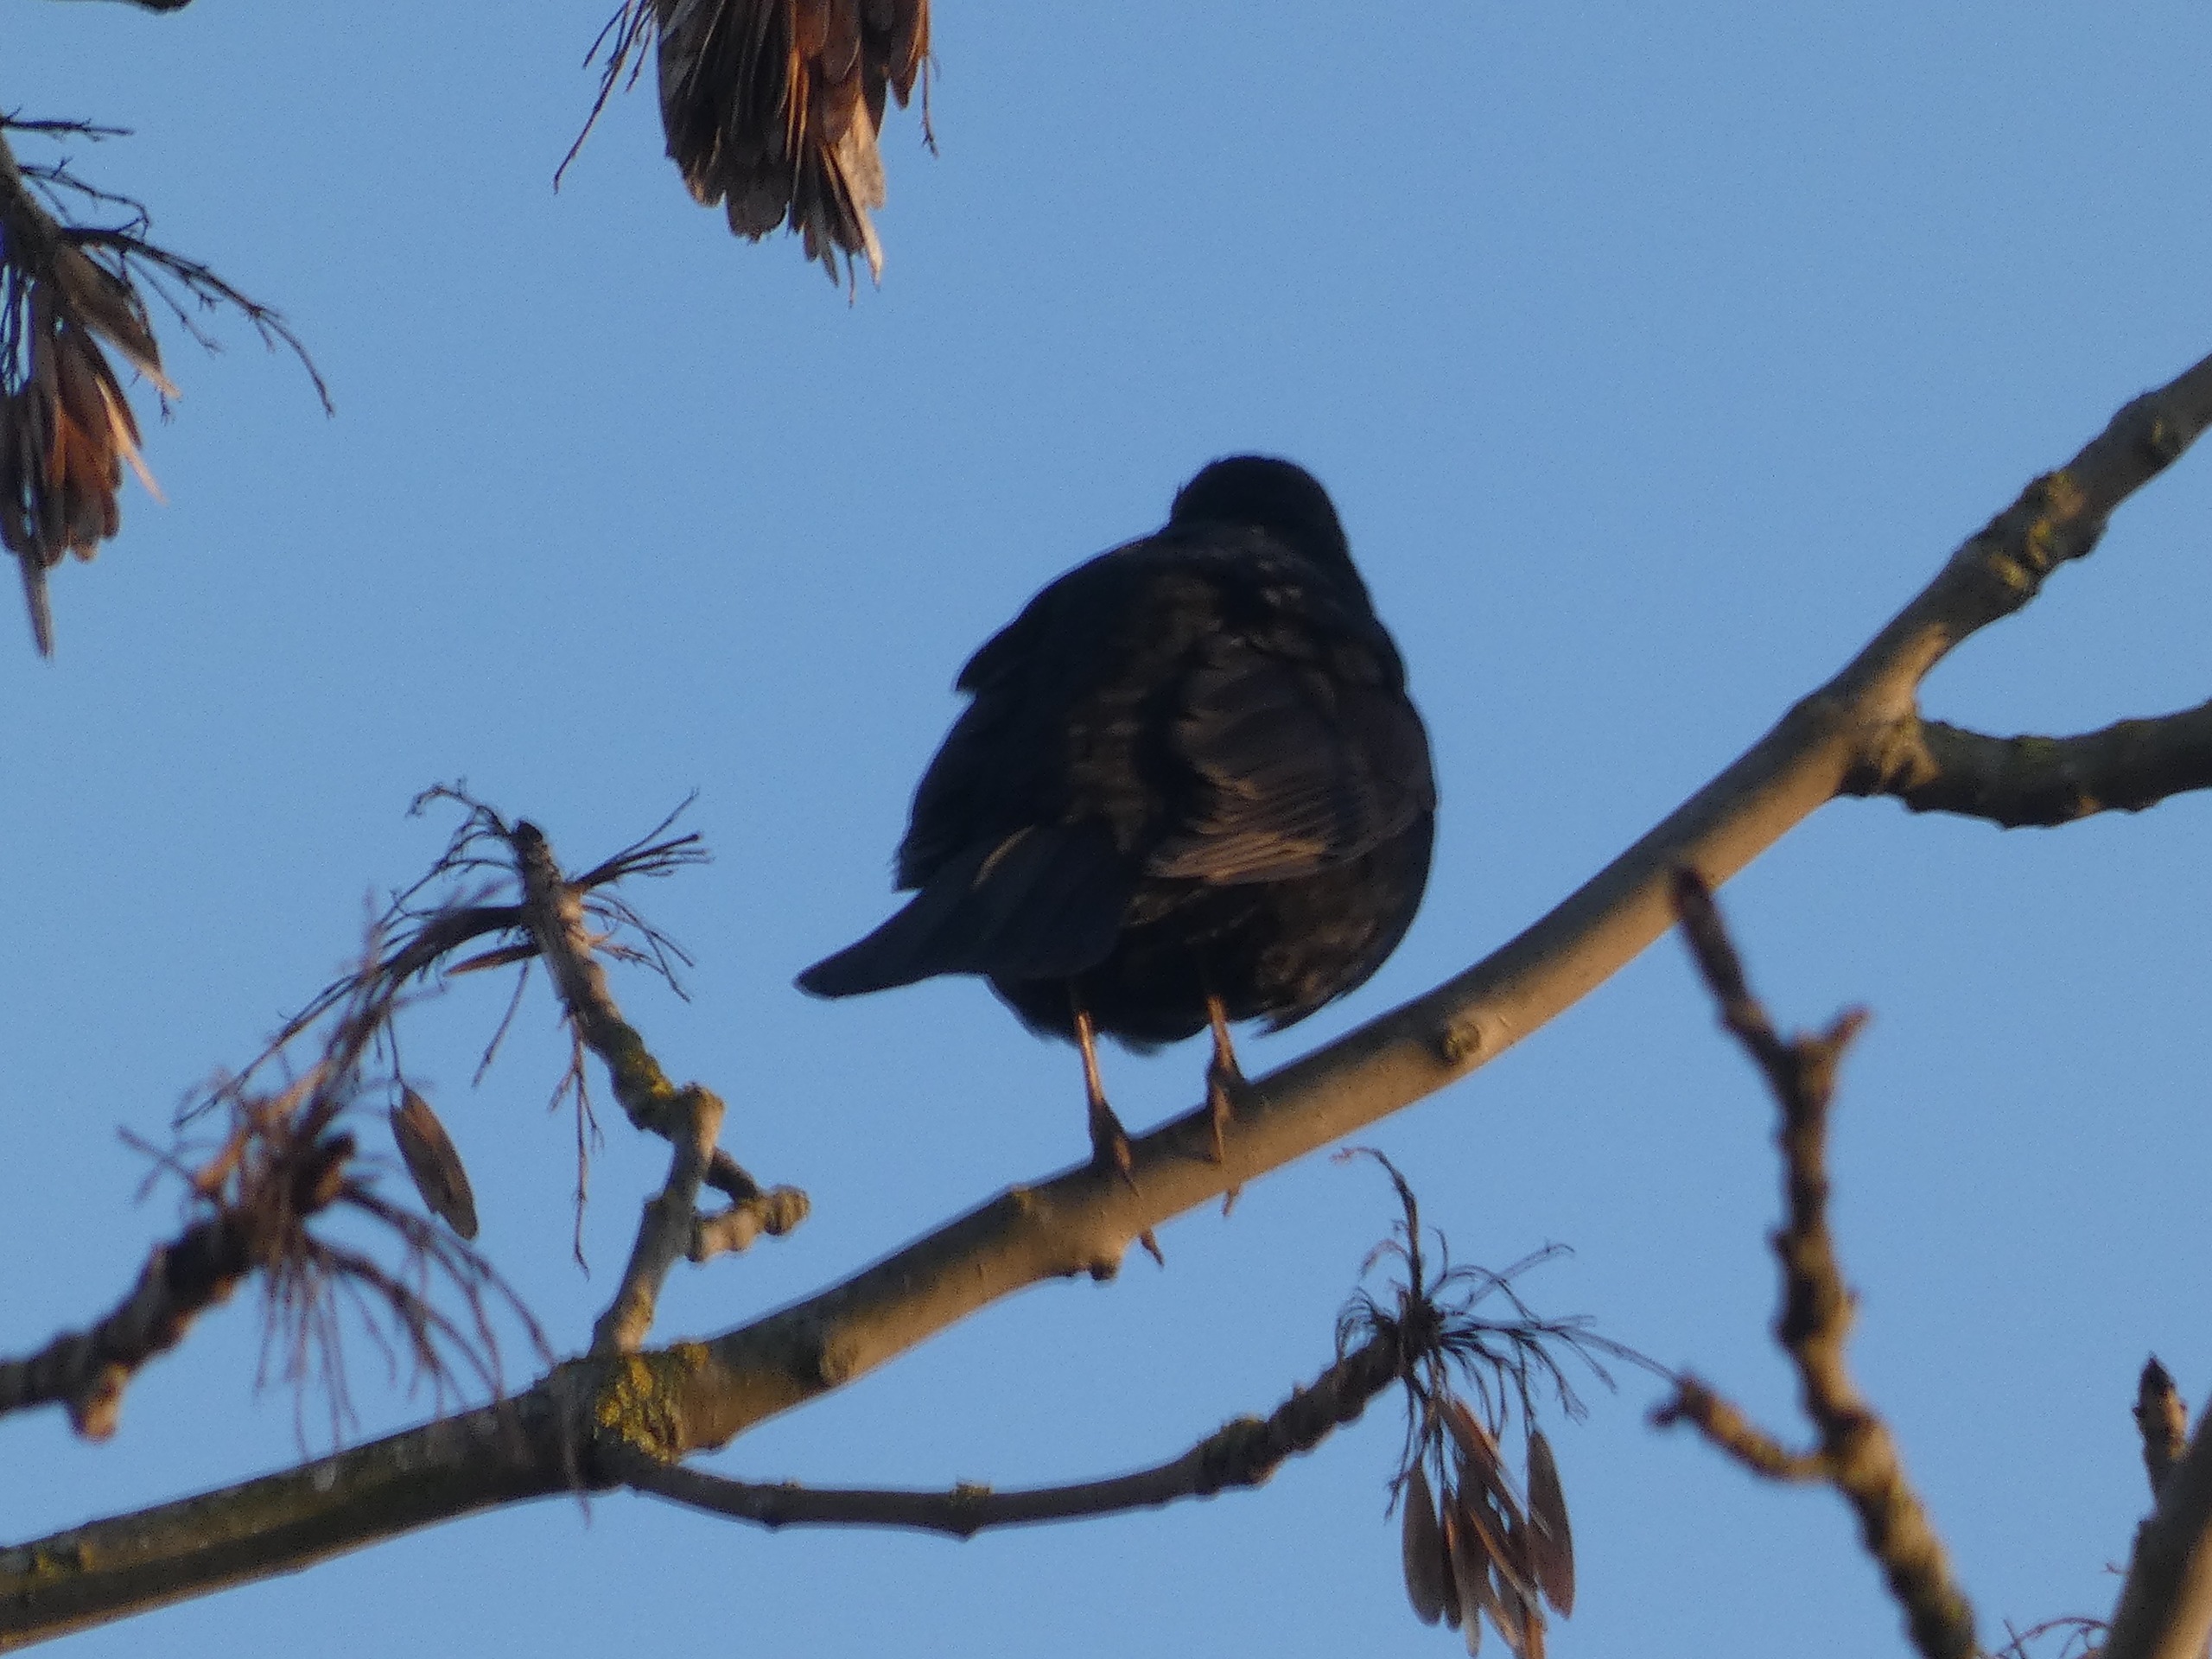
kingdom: Animalia
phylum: Chordata
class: Aves
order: Passeriformes
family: Turdidae
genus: Turdus
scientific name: Turdus merula
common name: Solsort
